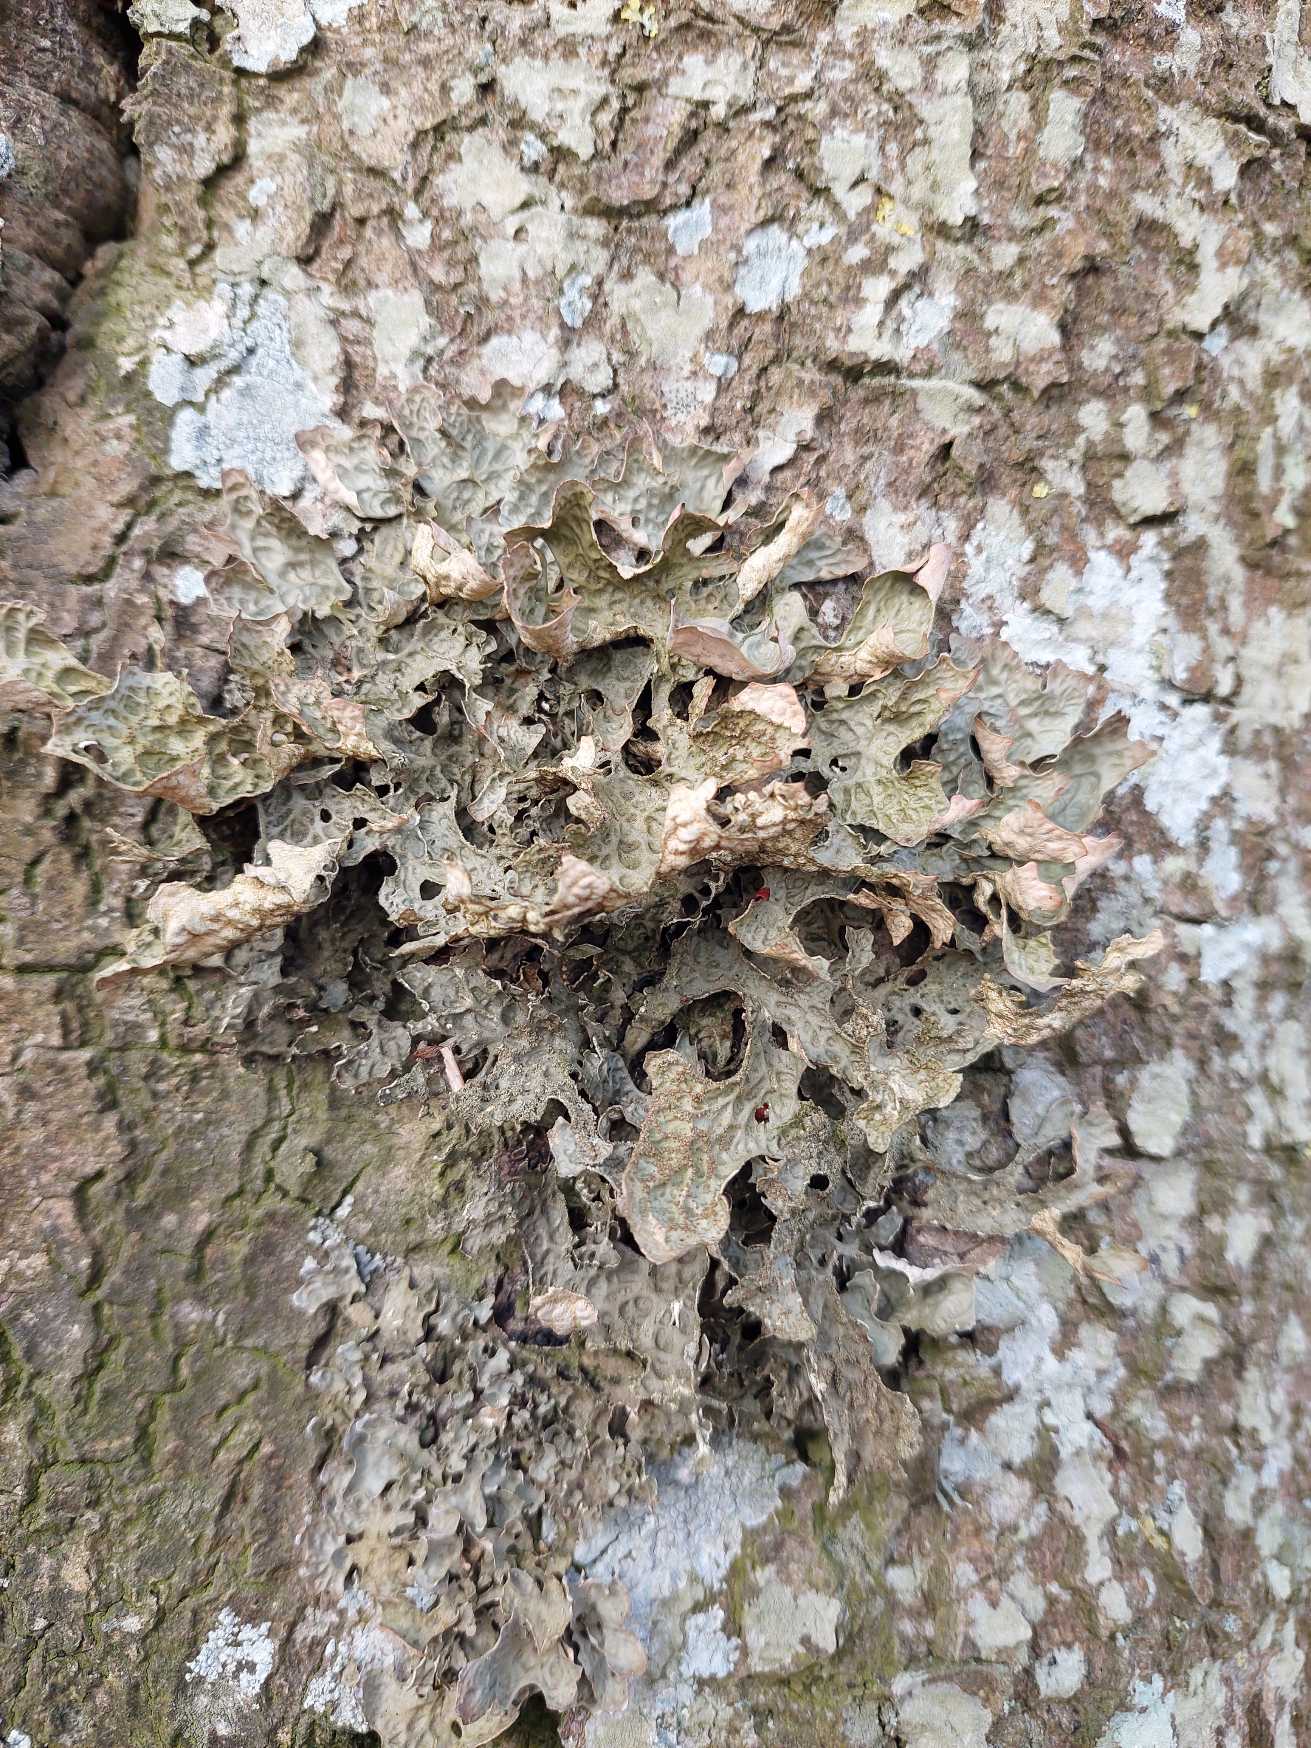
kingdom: Fungi
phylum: Ascomycota
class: Lecanoromycetes
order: Peltigerales
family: Lobariaceae
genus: Lobaria
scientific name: Lobaria pulmonaria
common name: Almindelig lungelav
